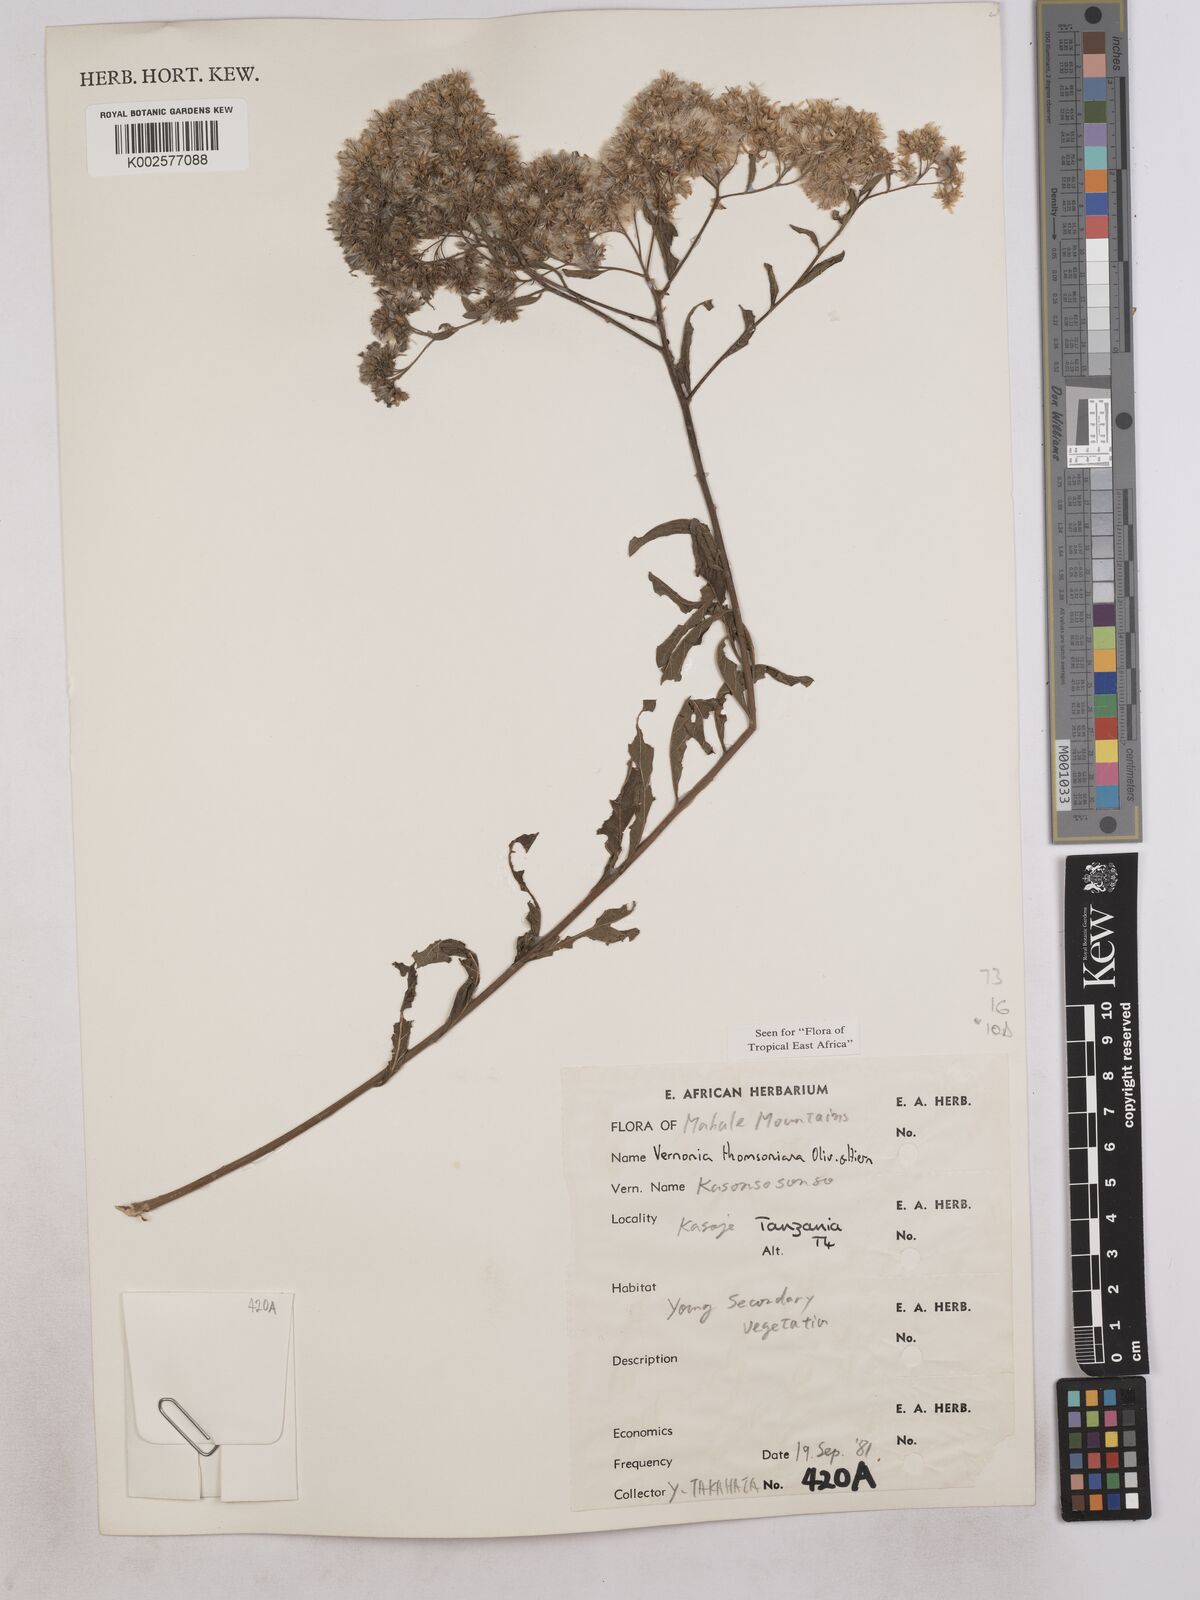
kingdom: Plantae
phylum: Tracheophyta
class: Magnoliopsida
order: Asterales
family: Asteraceae
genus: Gymnanthemum
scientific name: Gymnanthemum thomsonianum
